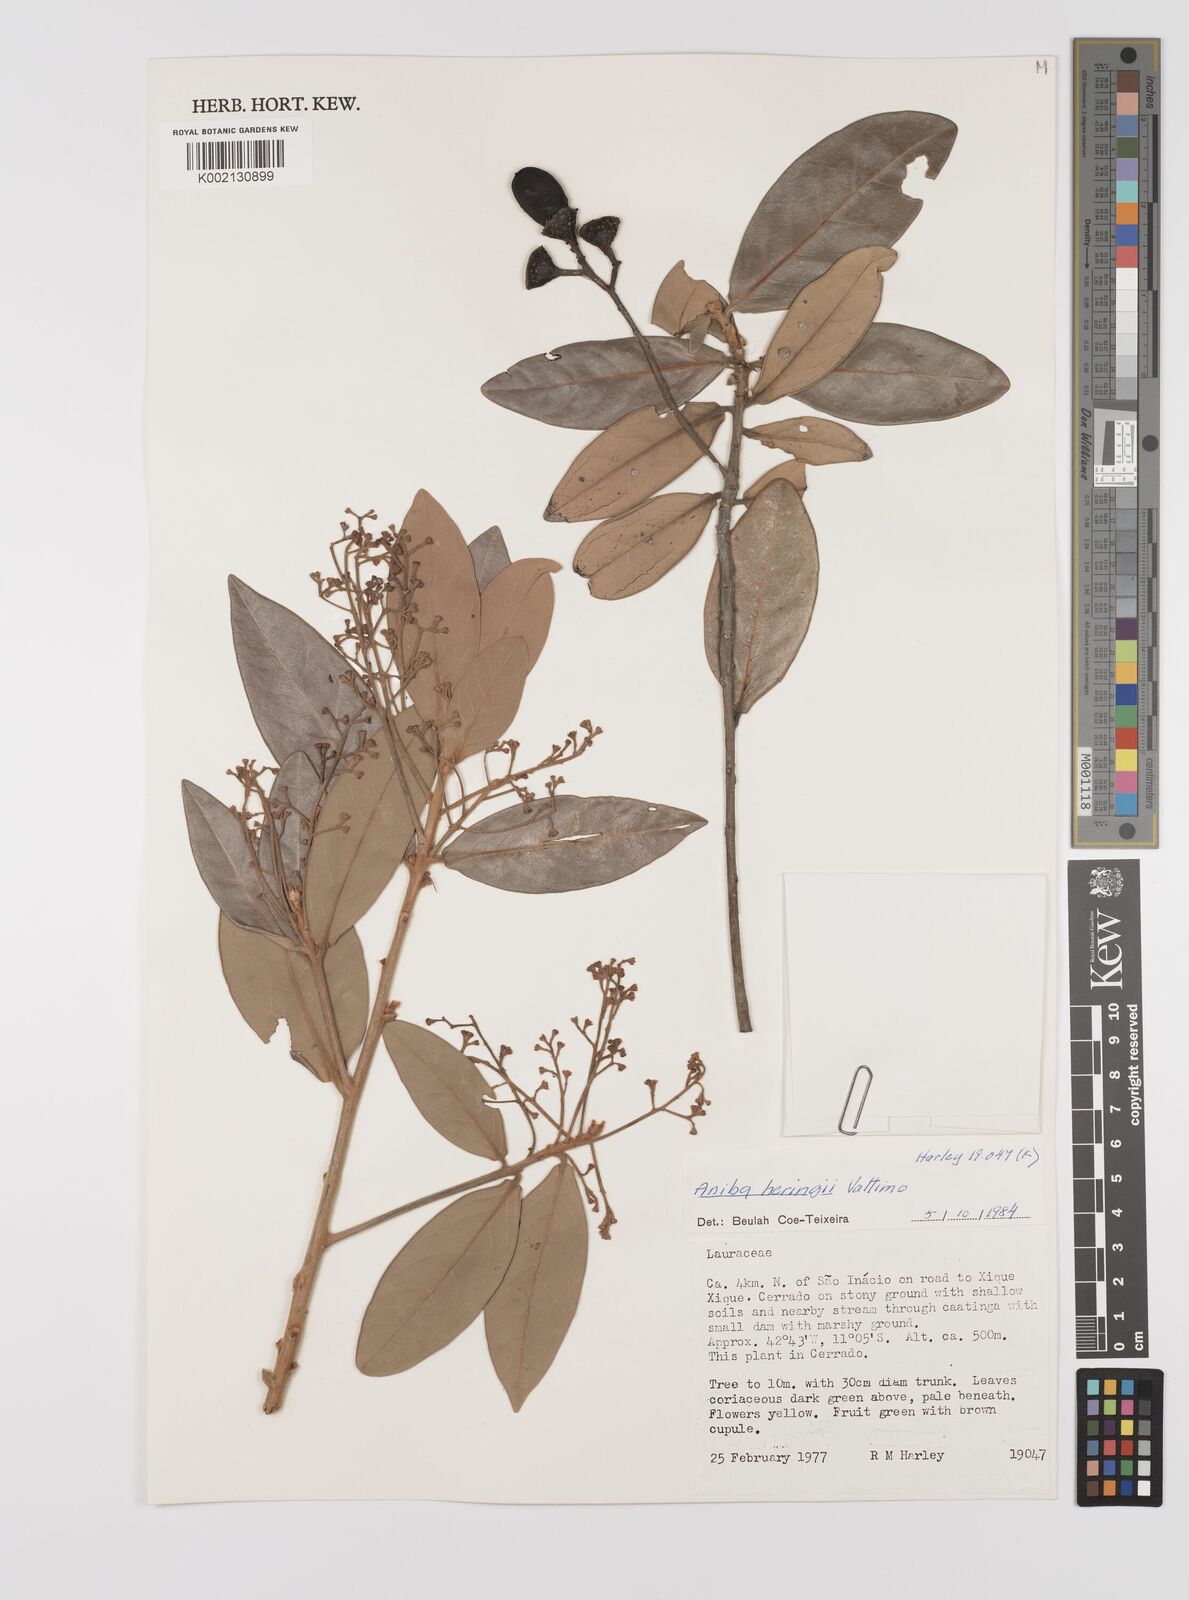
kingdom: Plantae
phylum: Tracheophyta
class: Magnoliopsida
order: Laurales
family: Lauraceae
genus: Aniba
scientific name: Aniba heringeri
